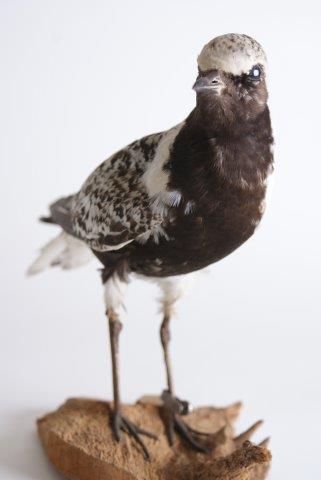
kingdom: Animalia
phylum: Chordata
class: Aves
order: Charadriiformes
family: Charadriidae
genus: Pluvialis
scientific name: Pluvialis squatarola
